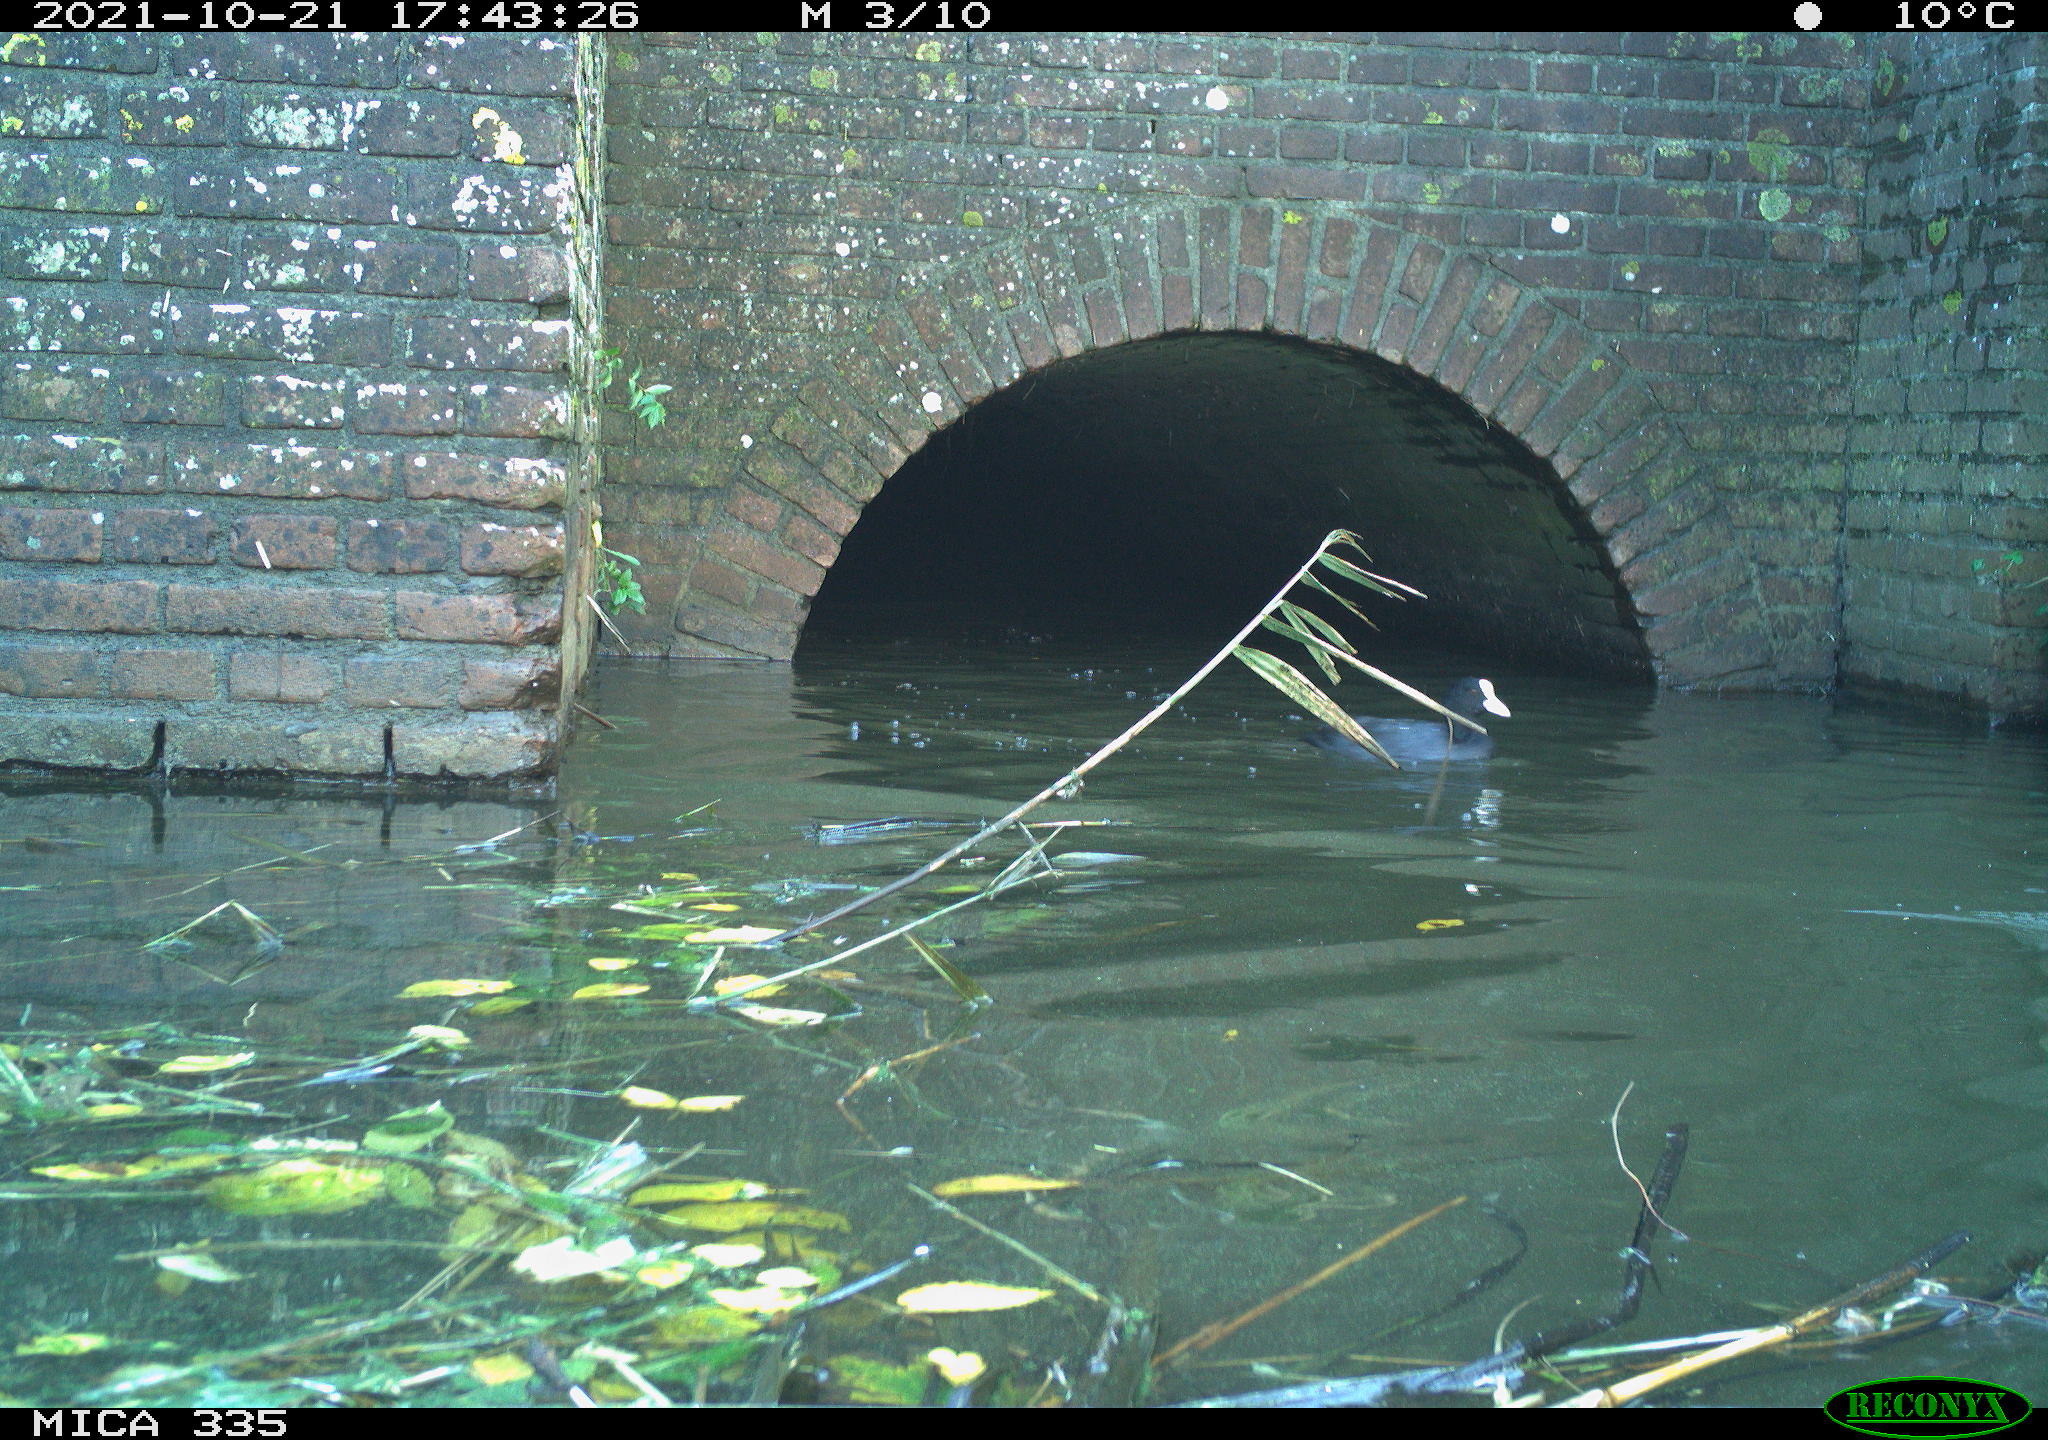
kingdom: Animalia
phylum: Chordata
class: Aves
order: Gruiformes
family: Rallidae
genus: Fulica
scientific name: Fulica atra
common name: Eurasian coot
